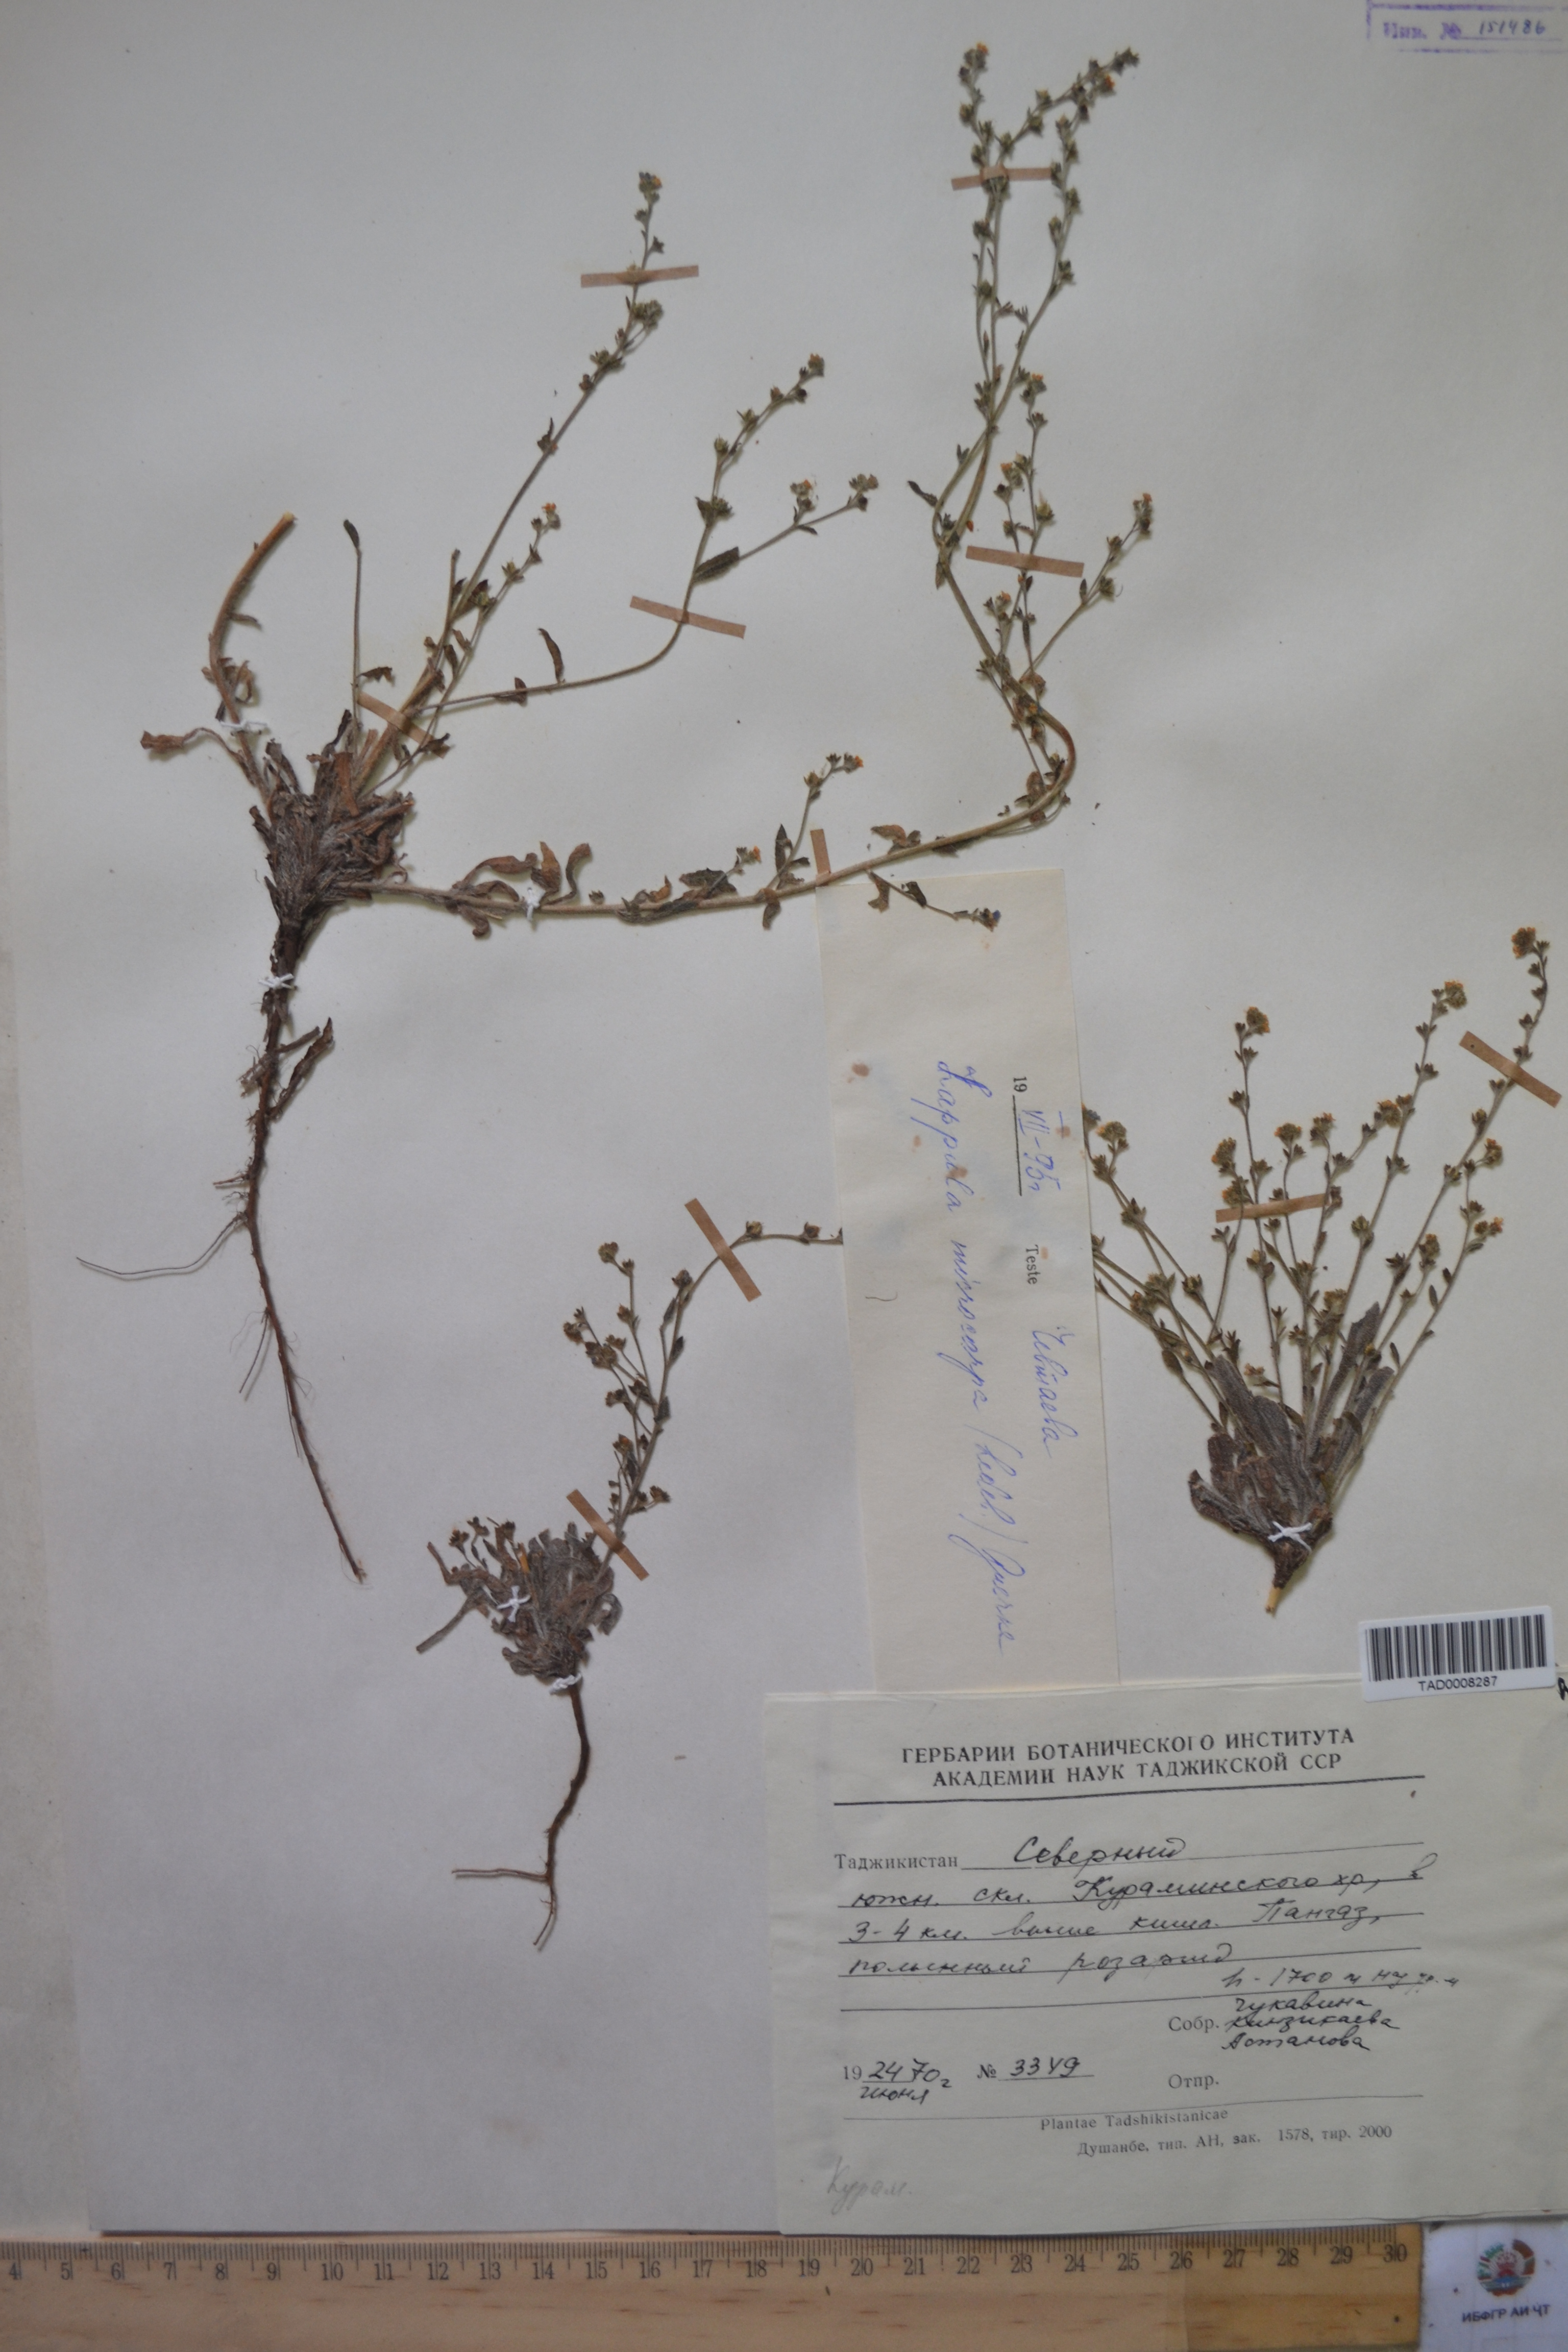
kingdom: Plantae
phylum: Tracheophyta
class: Magnoliopsida
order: Boraginales
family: Boraginaceae
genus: Lappula
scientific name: Lappula microcarpa
